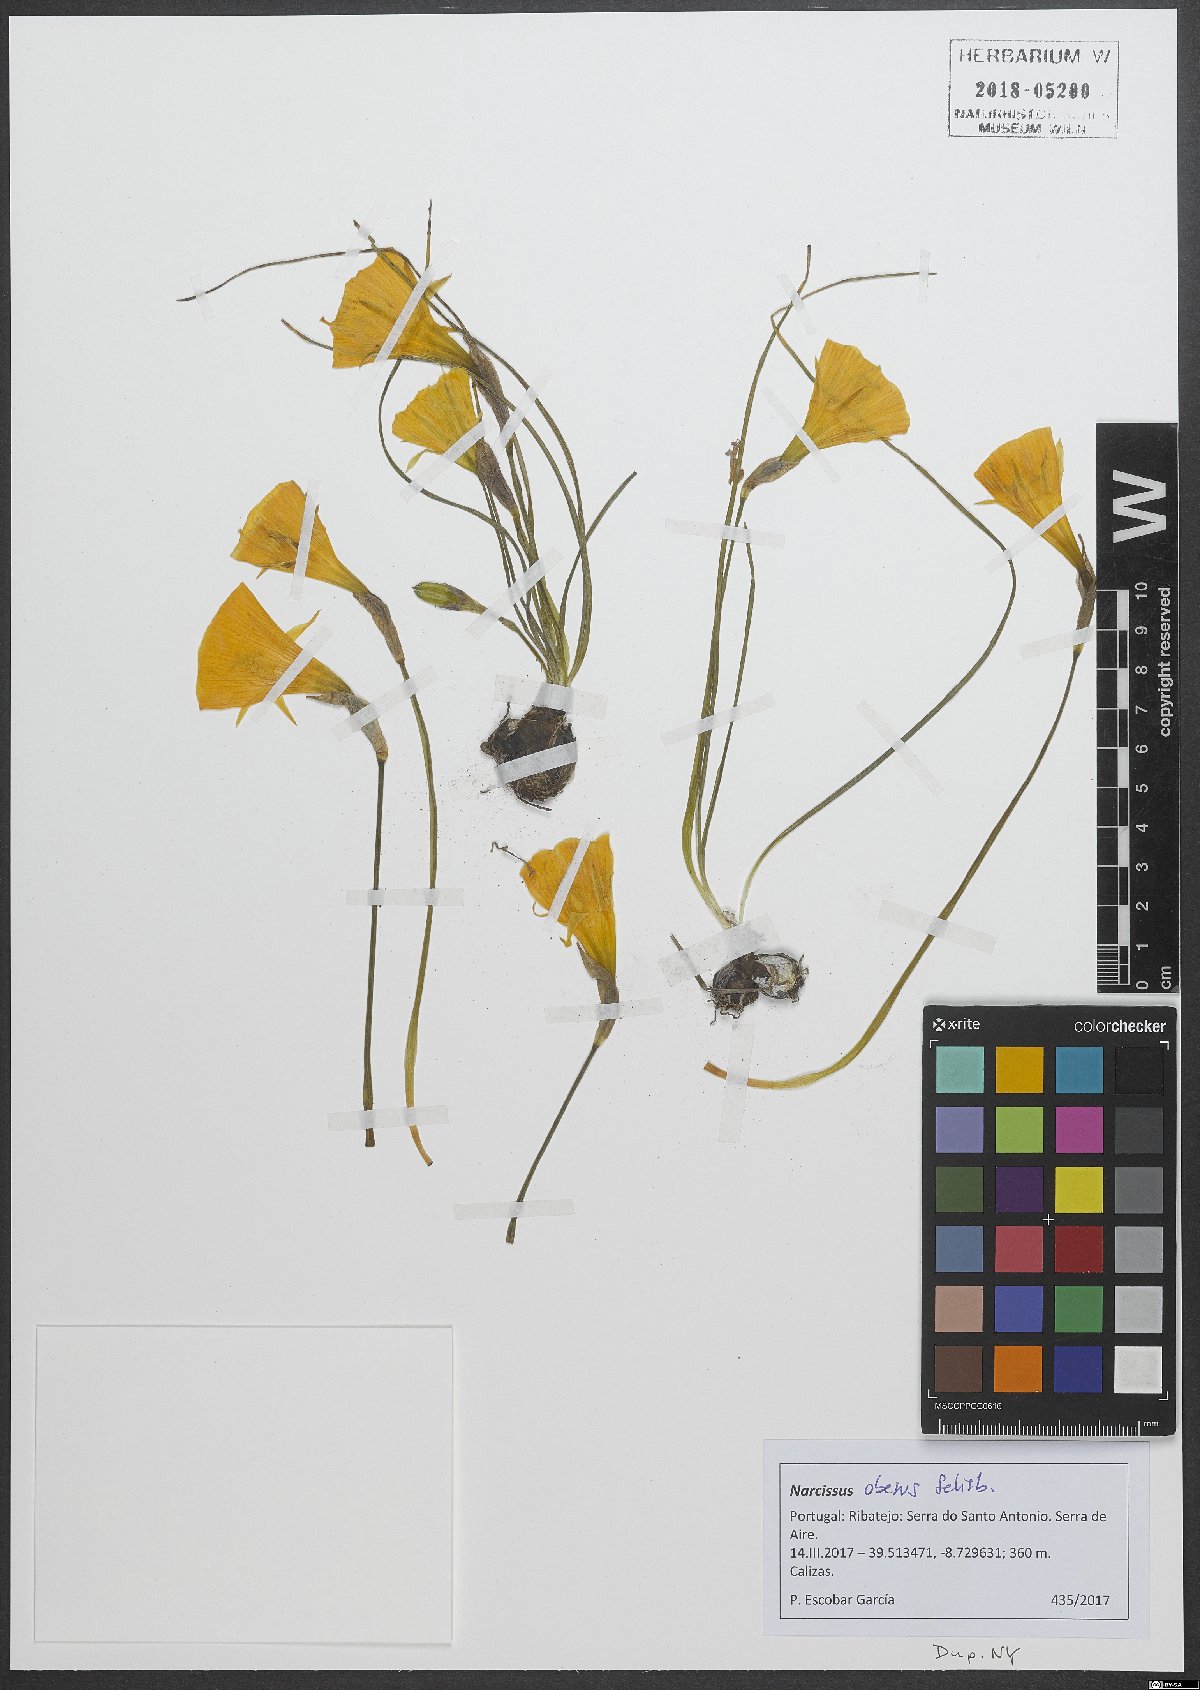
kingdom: Plantae
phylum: Tracheophyta
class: Liliopsida
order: Asparagales
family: Amaryllidaceae
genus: Narcissus
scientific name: Narcissus obesus
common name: Hoop petticoat daffodil
